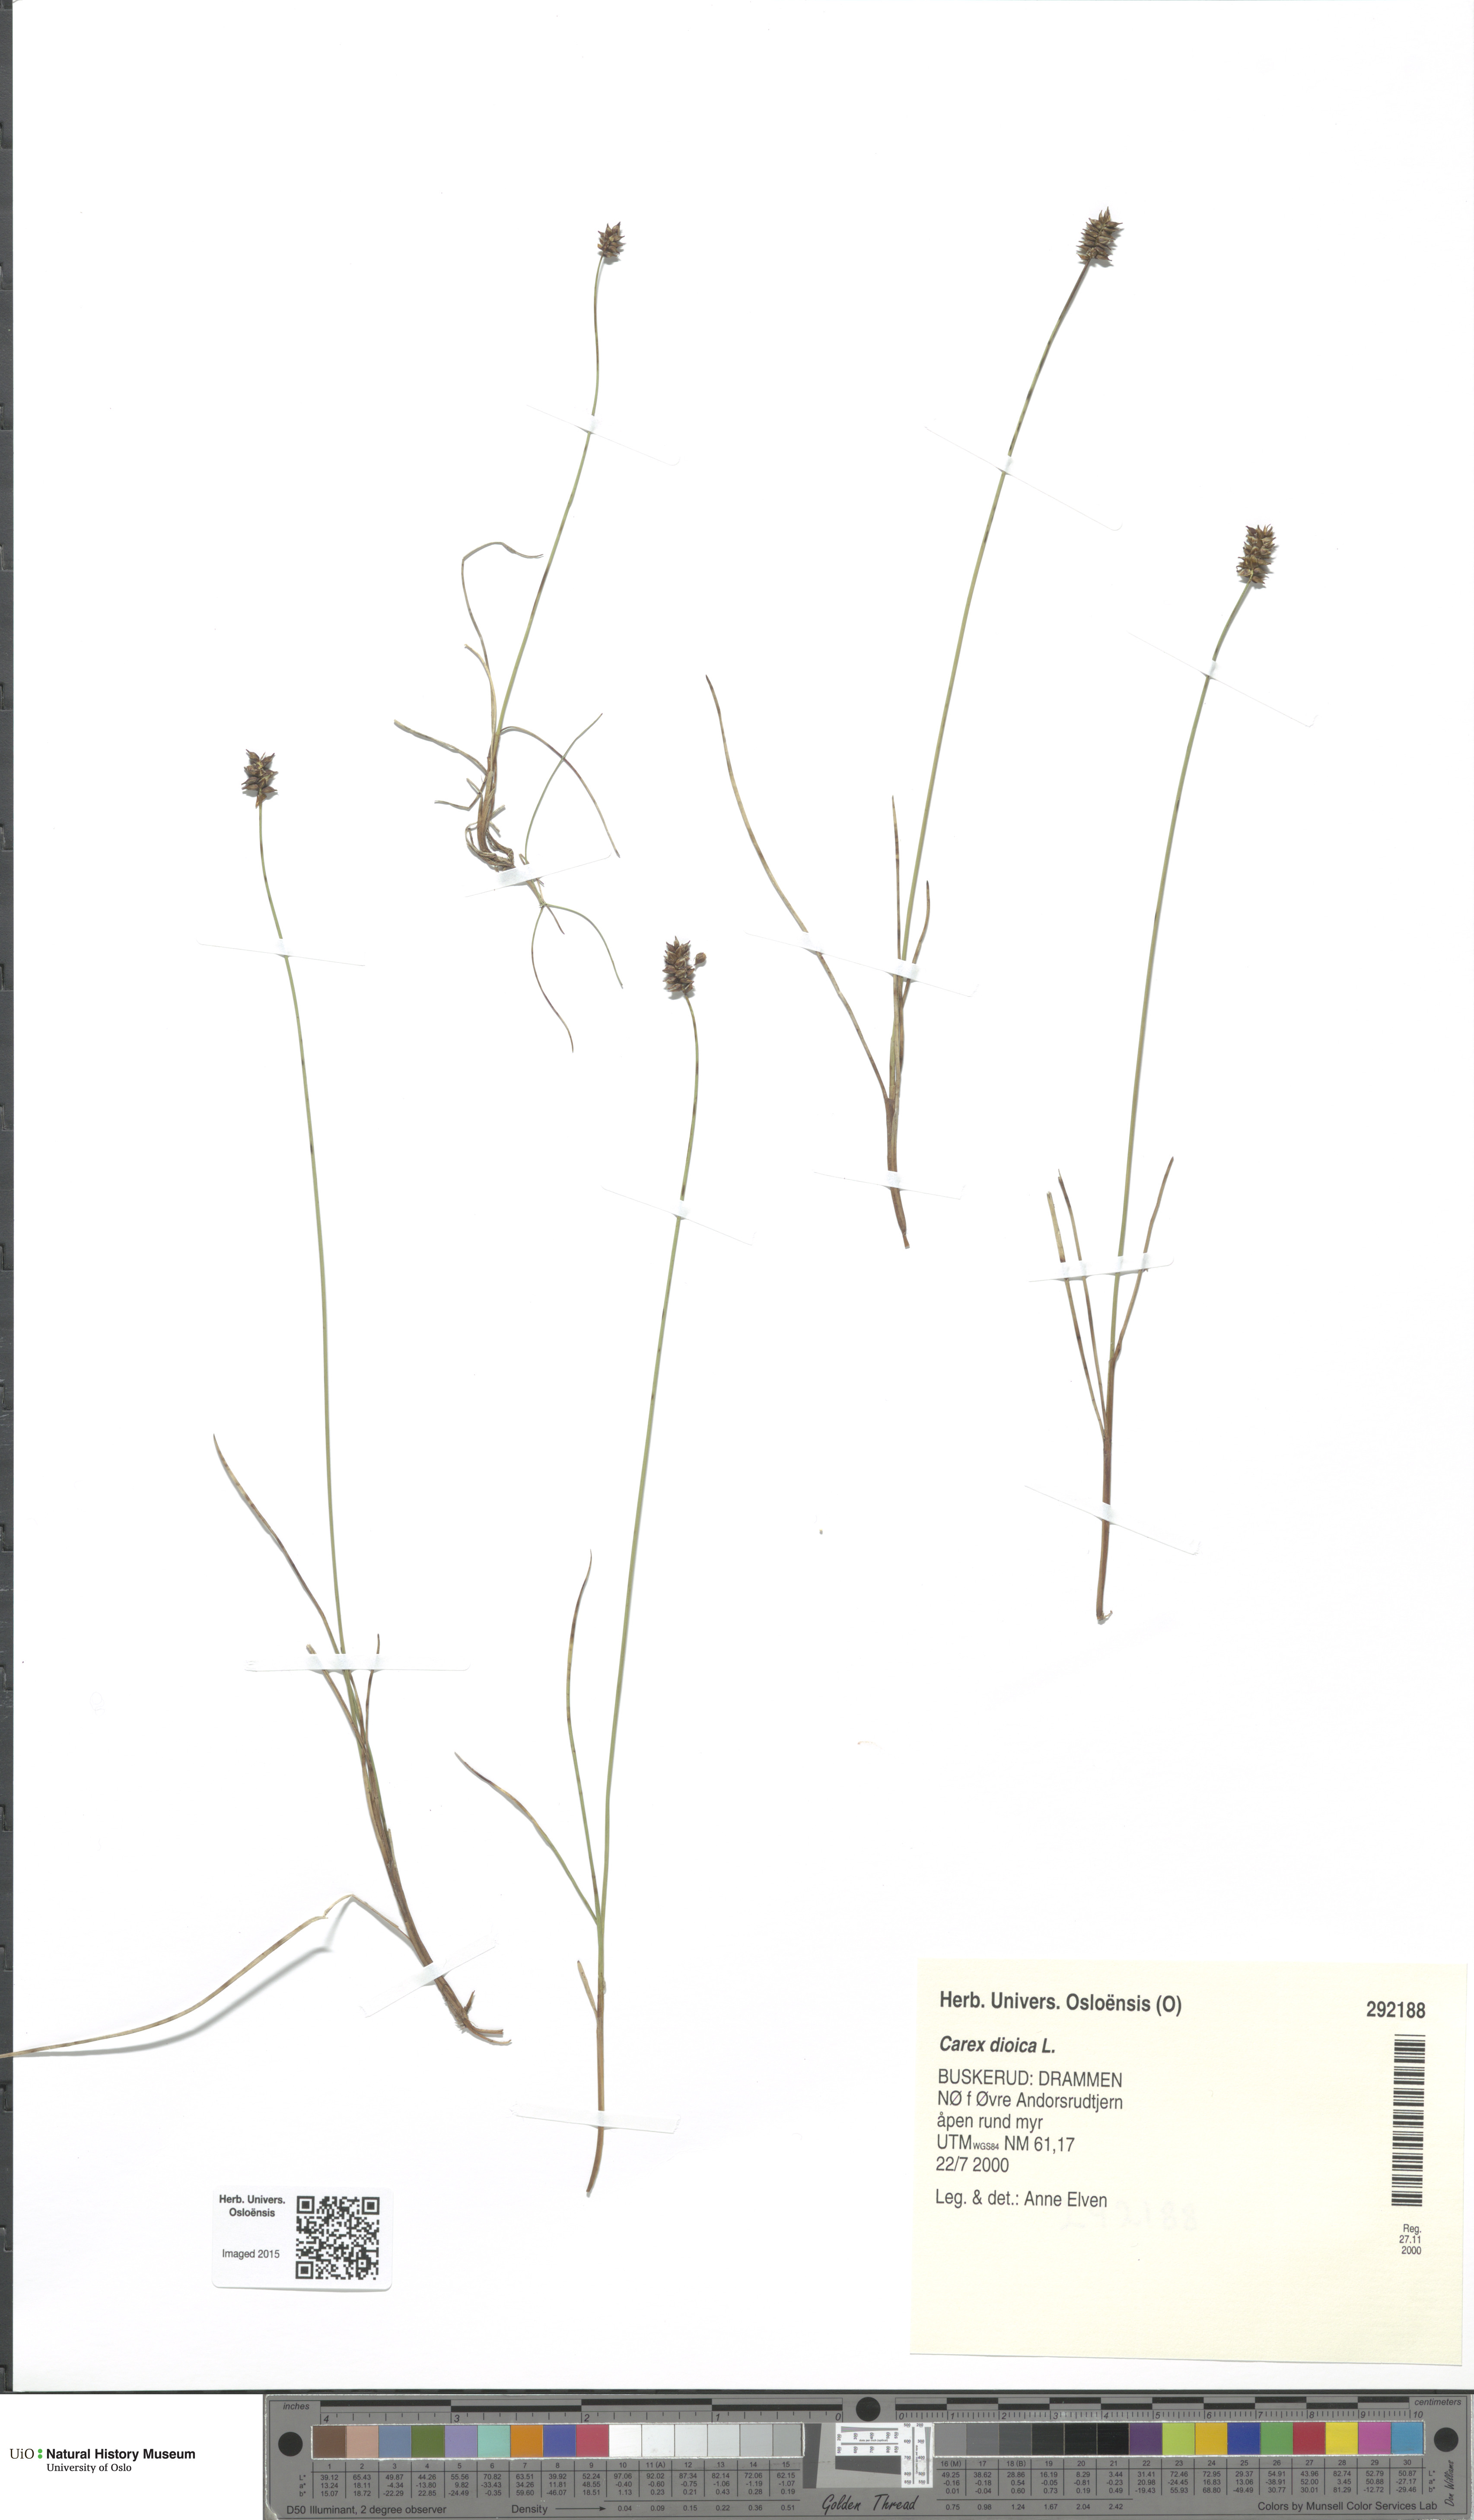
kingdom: Plantae
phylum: Tracheophyta
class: Liliopsida
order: Poales
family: Cyperaceae
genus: Carex
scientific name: Carex dioica
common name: Dioecious sedge
